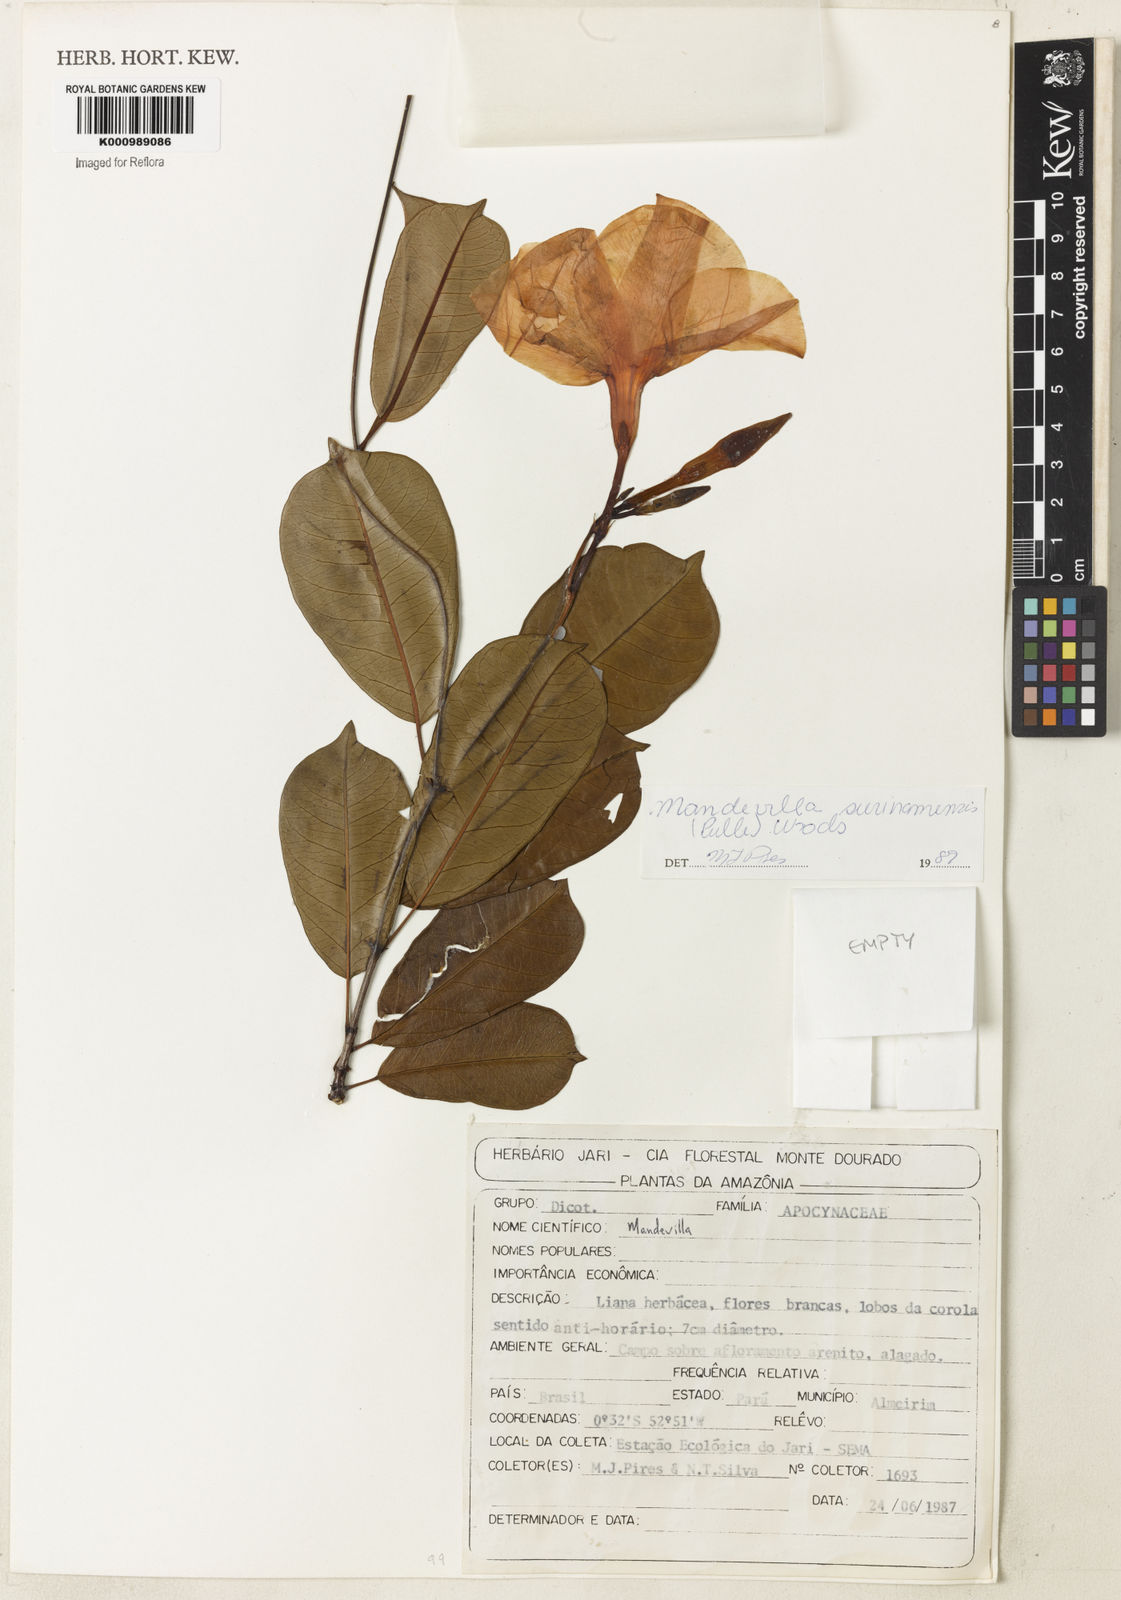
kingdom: Plantae
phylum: Tracheophyta
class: Magnoliopsida
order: Gentianales
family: Apocynaceae
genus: Mandevilla
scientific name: Mandevilla surinamensis
